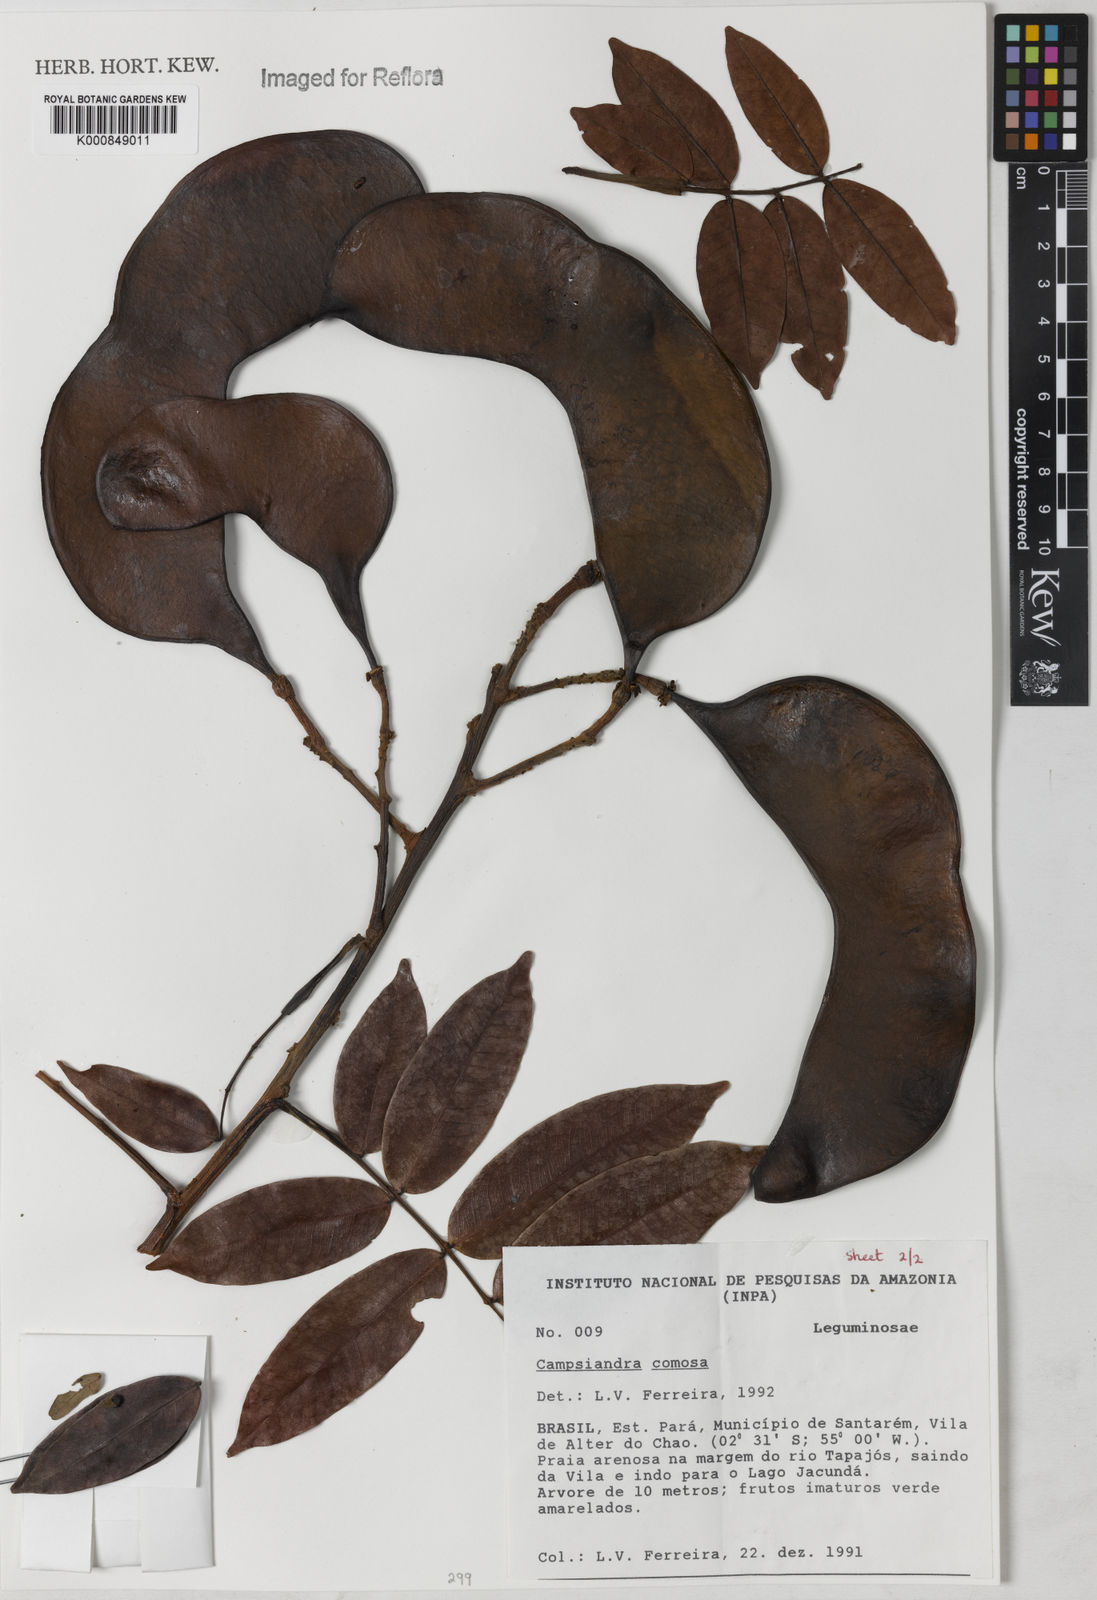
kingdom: Plantae
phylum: Tracheophyta
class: Magnoliopsida
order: Fabales
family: Fabaceae
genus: Campsiandra
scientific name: Campsiandra laurifolia
